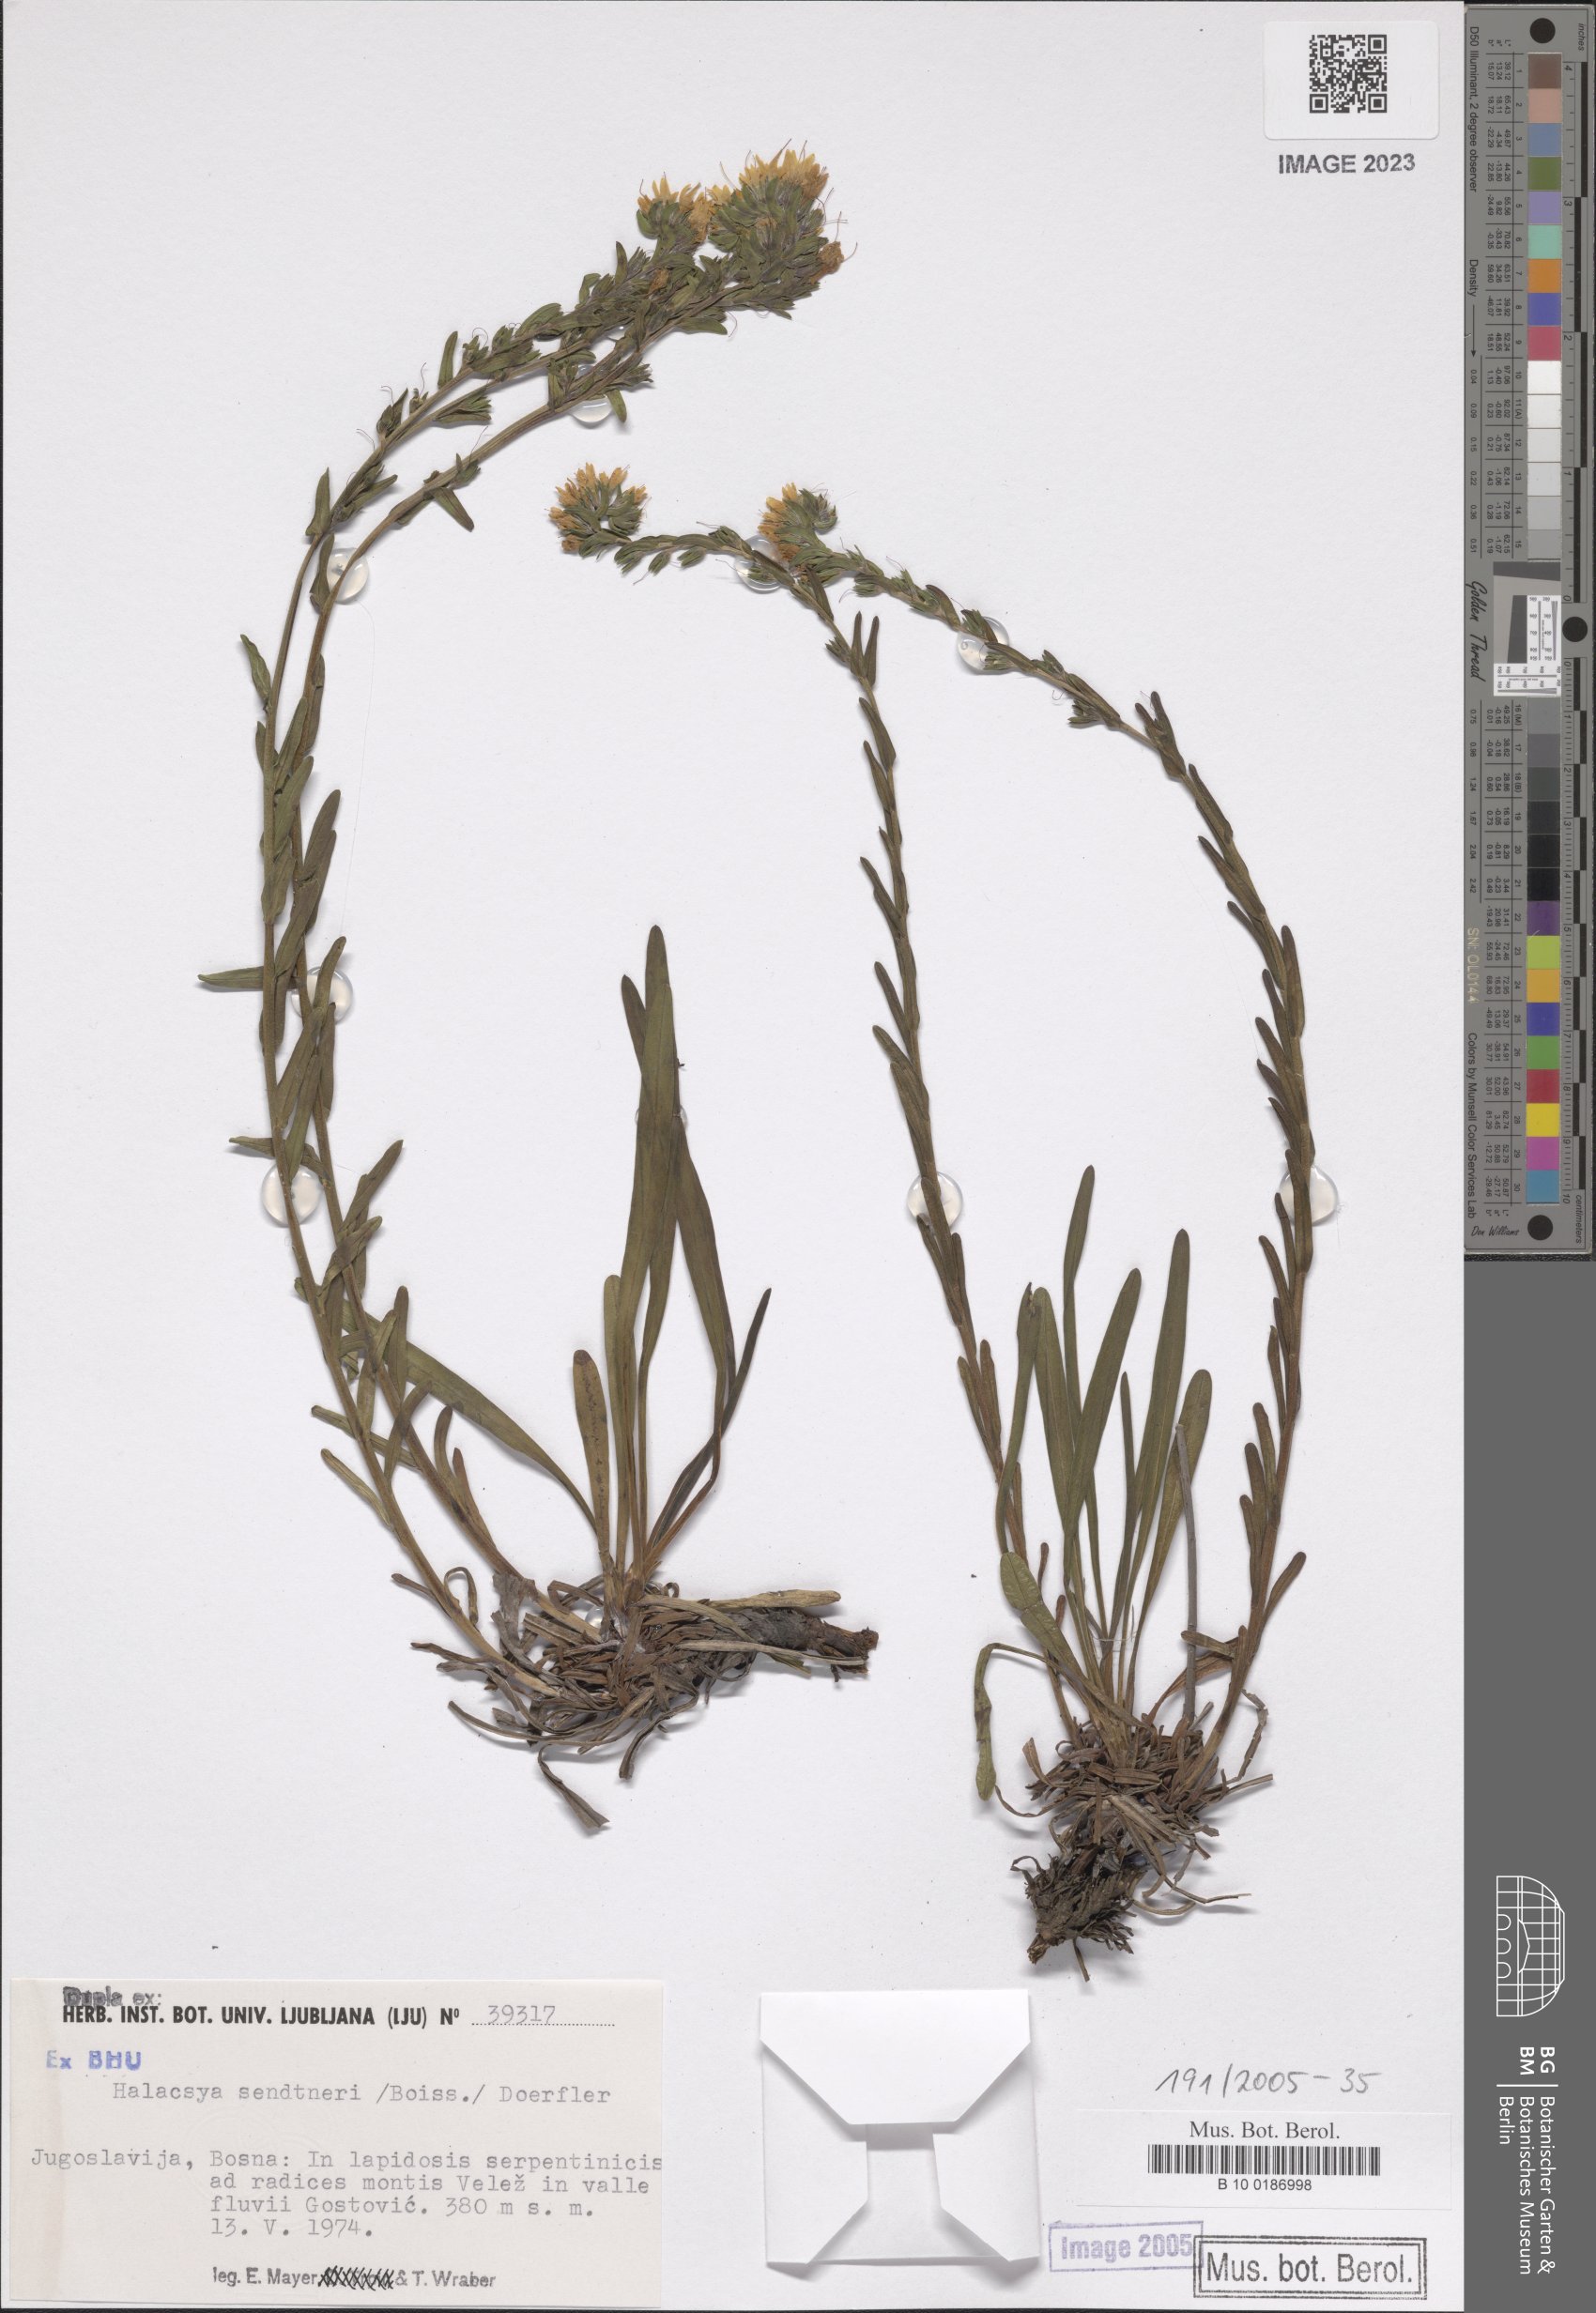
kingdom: Plantae
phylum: Tracheophyta
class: Magnoliopsida
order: Boraginales
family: Boraginaceae
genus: Halacsya
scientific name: Halacsya sendtneri
